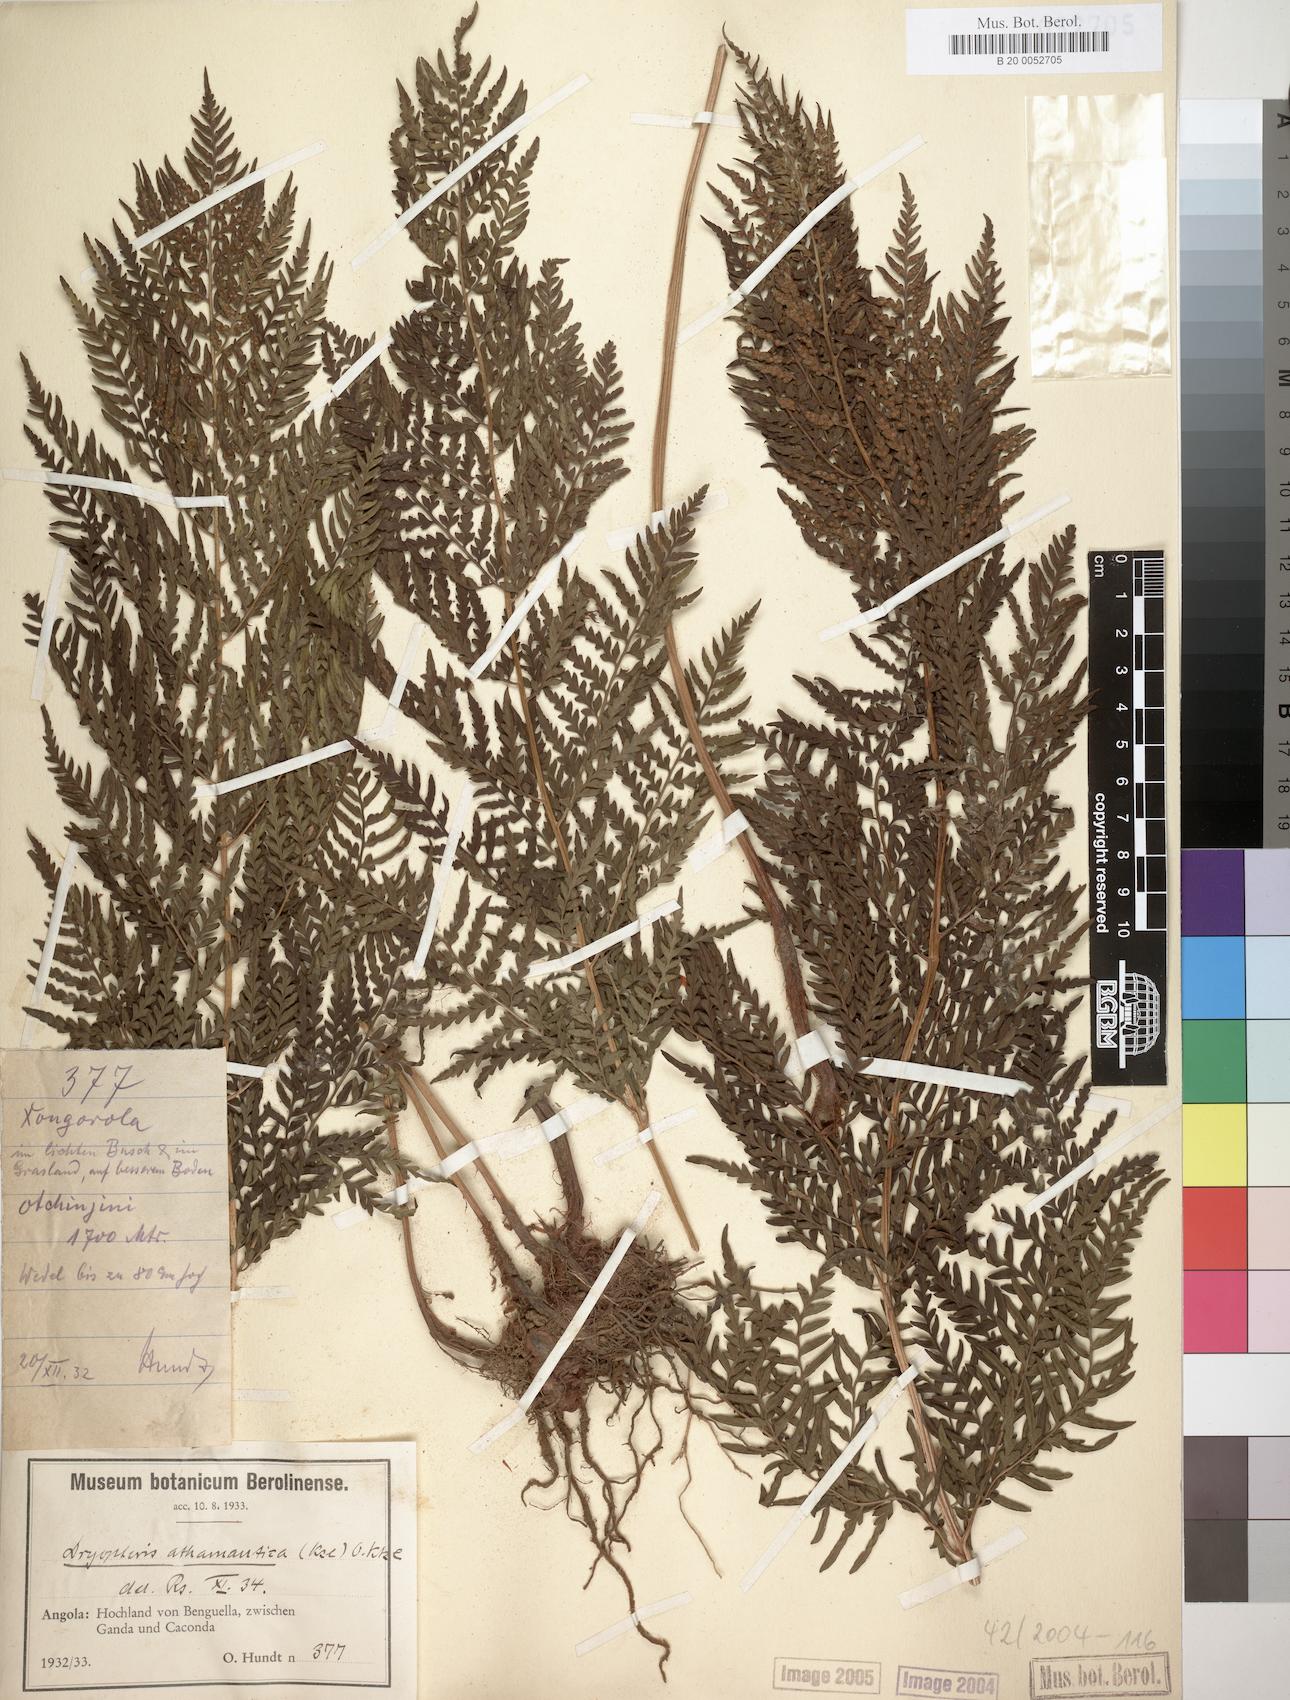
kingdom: Plantae
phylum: Tracheophyta
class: Polypodiopsida
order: Polypodiales
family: Dryopteridaceae
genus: Dryopteris
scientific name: Dryopteris athamantica
